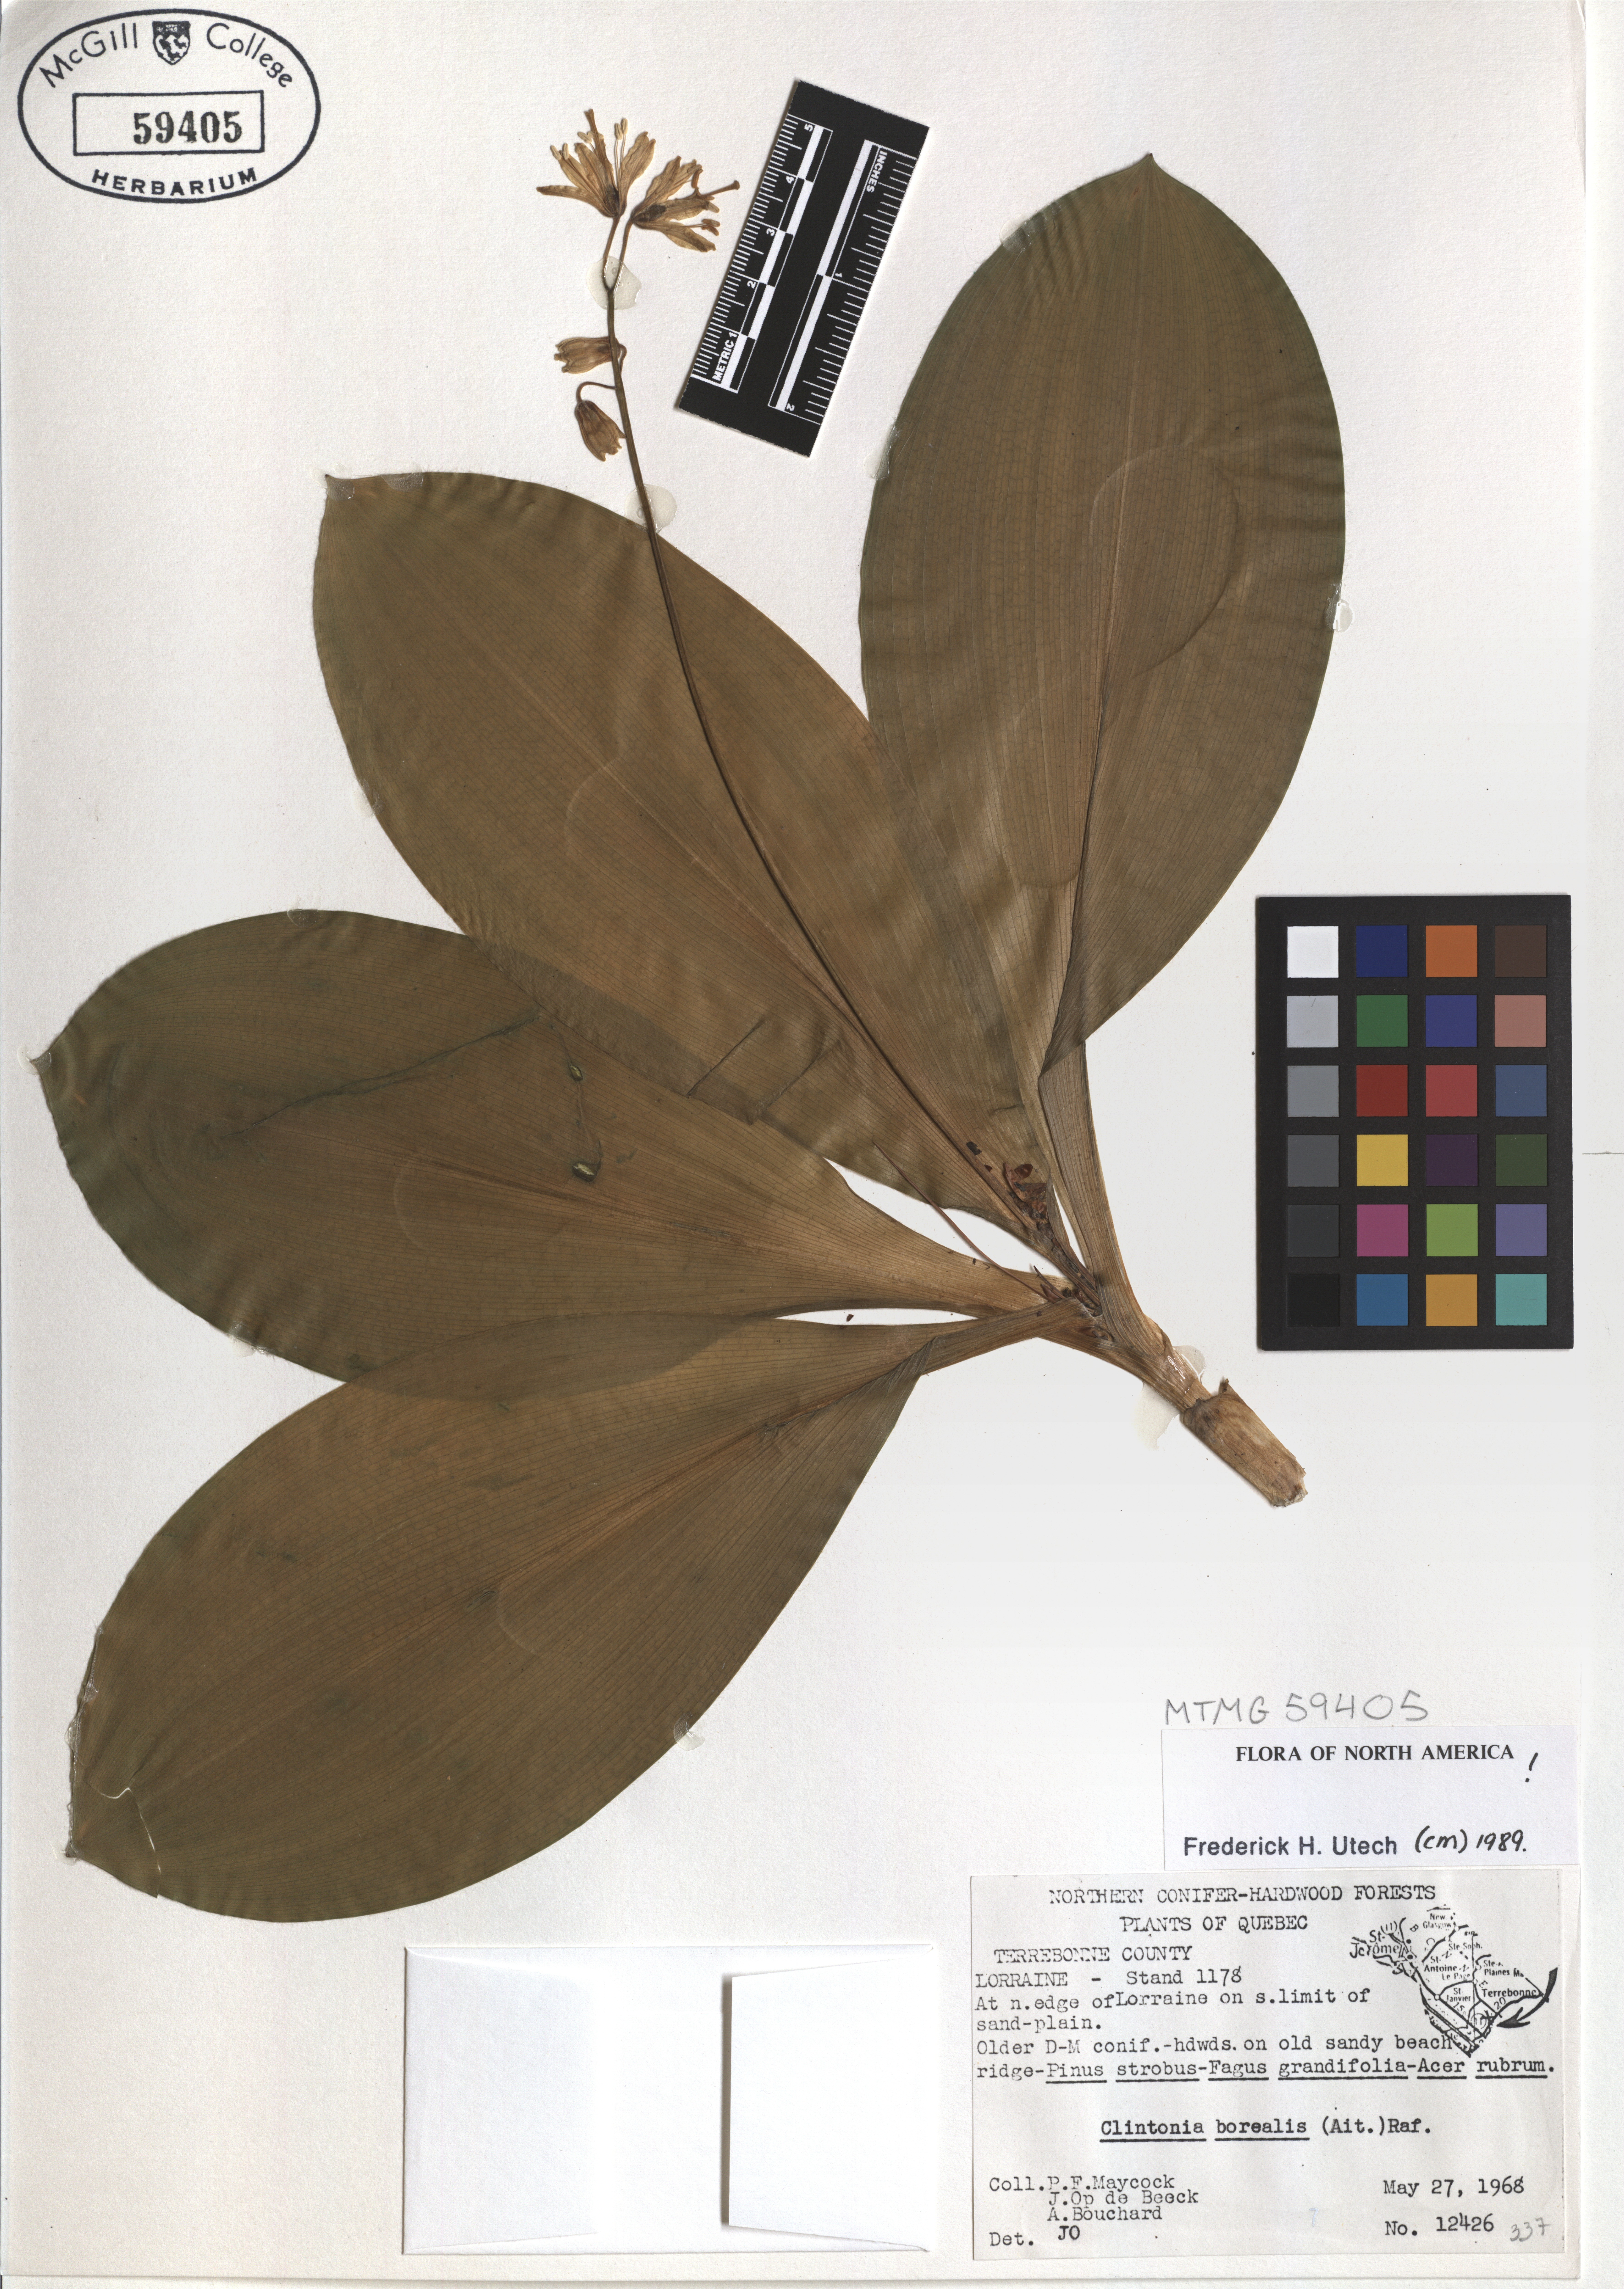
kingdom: Plantae
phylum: Tracheophyta
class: Liliopsida
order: Liliales
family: Liliaceae
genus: Clintonia
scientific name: Clintonia borealis
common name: Yellow clintonia
